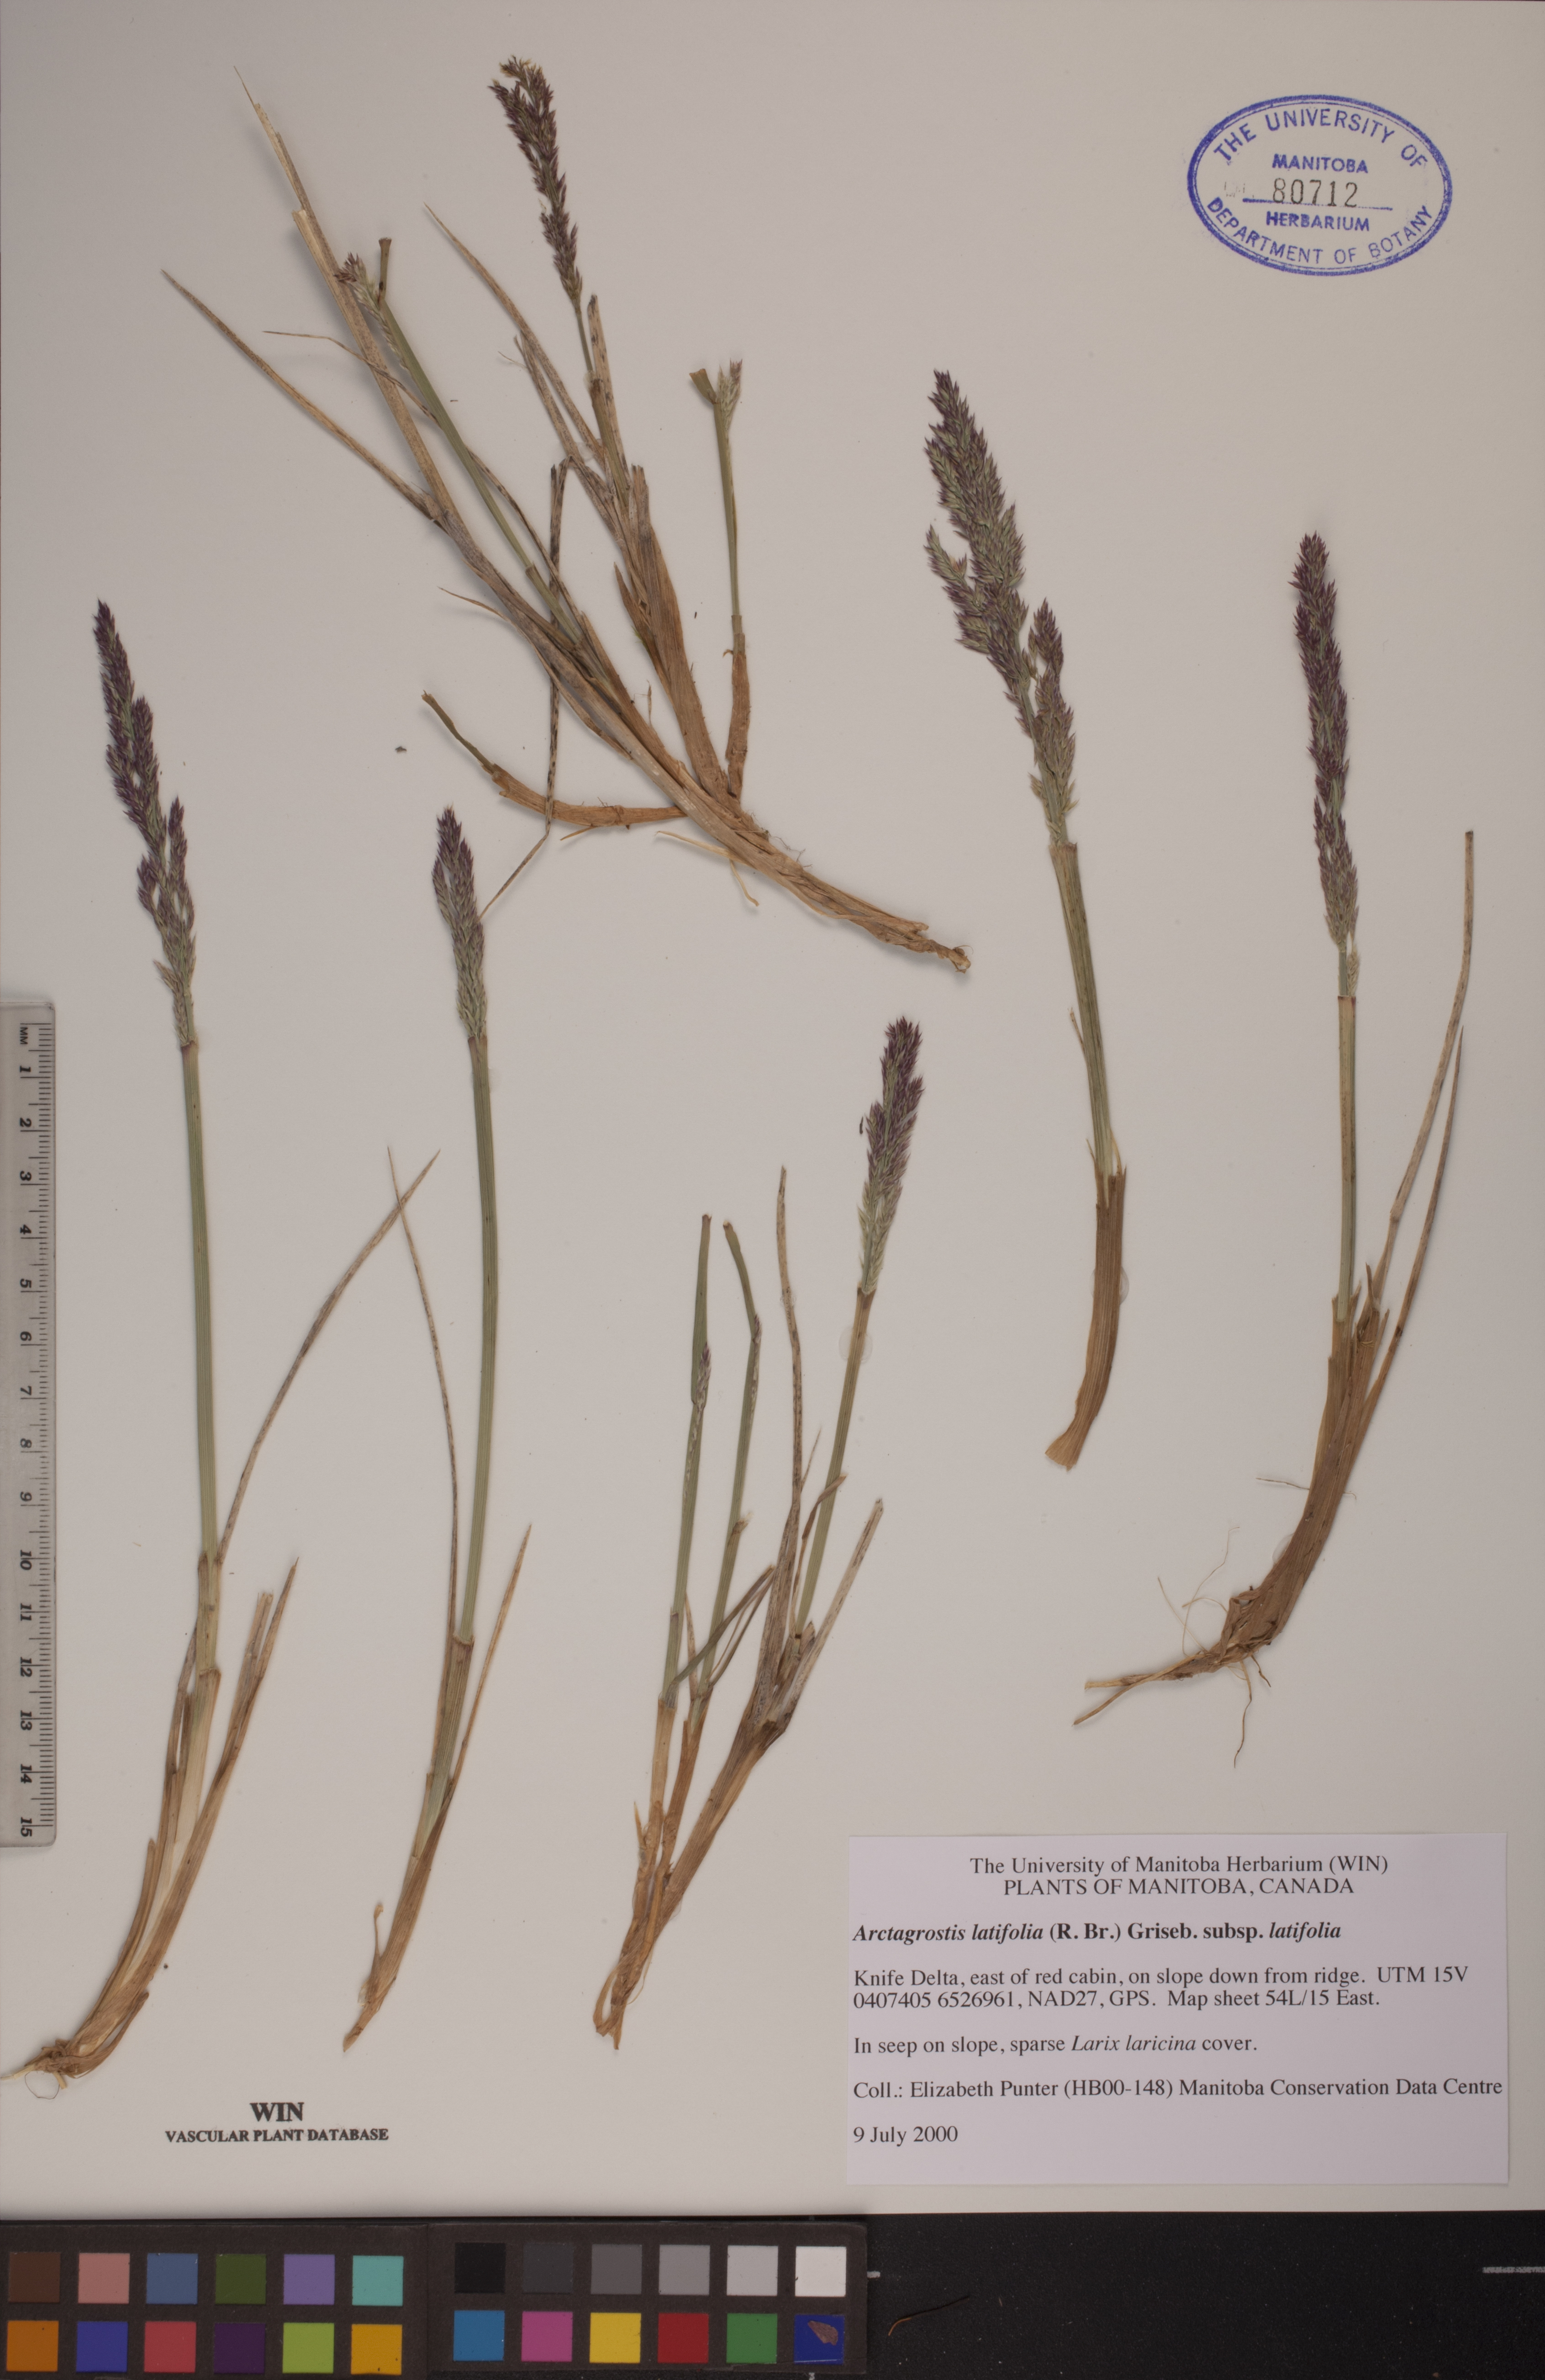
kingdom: Plantae
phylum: Tracheophyta
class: Liliopsida
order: Poales
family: Poaceae
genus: Arctagrostis
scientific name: Arctagrostis latifolia
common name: Arctic grass
